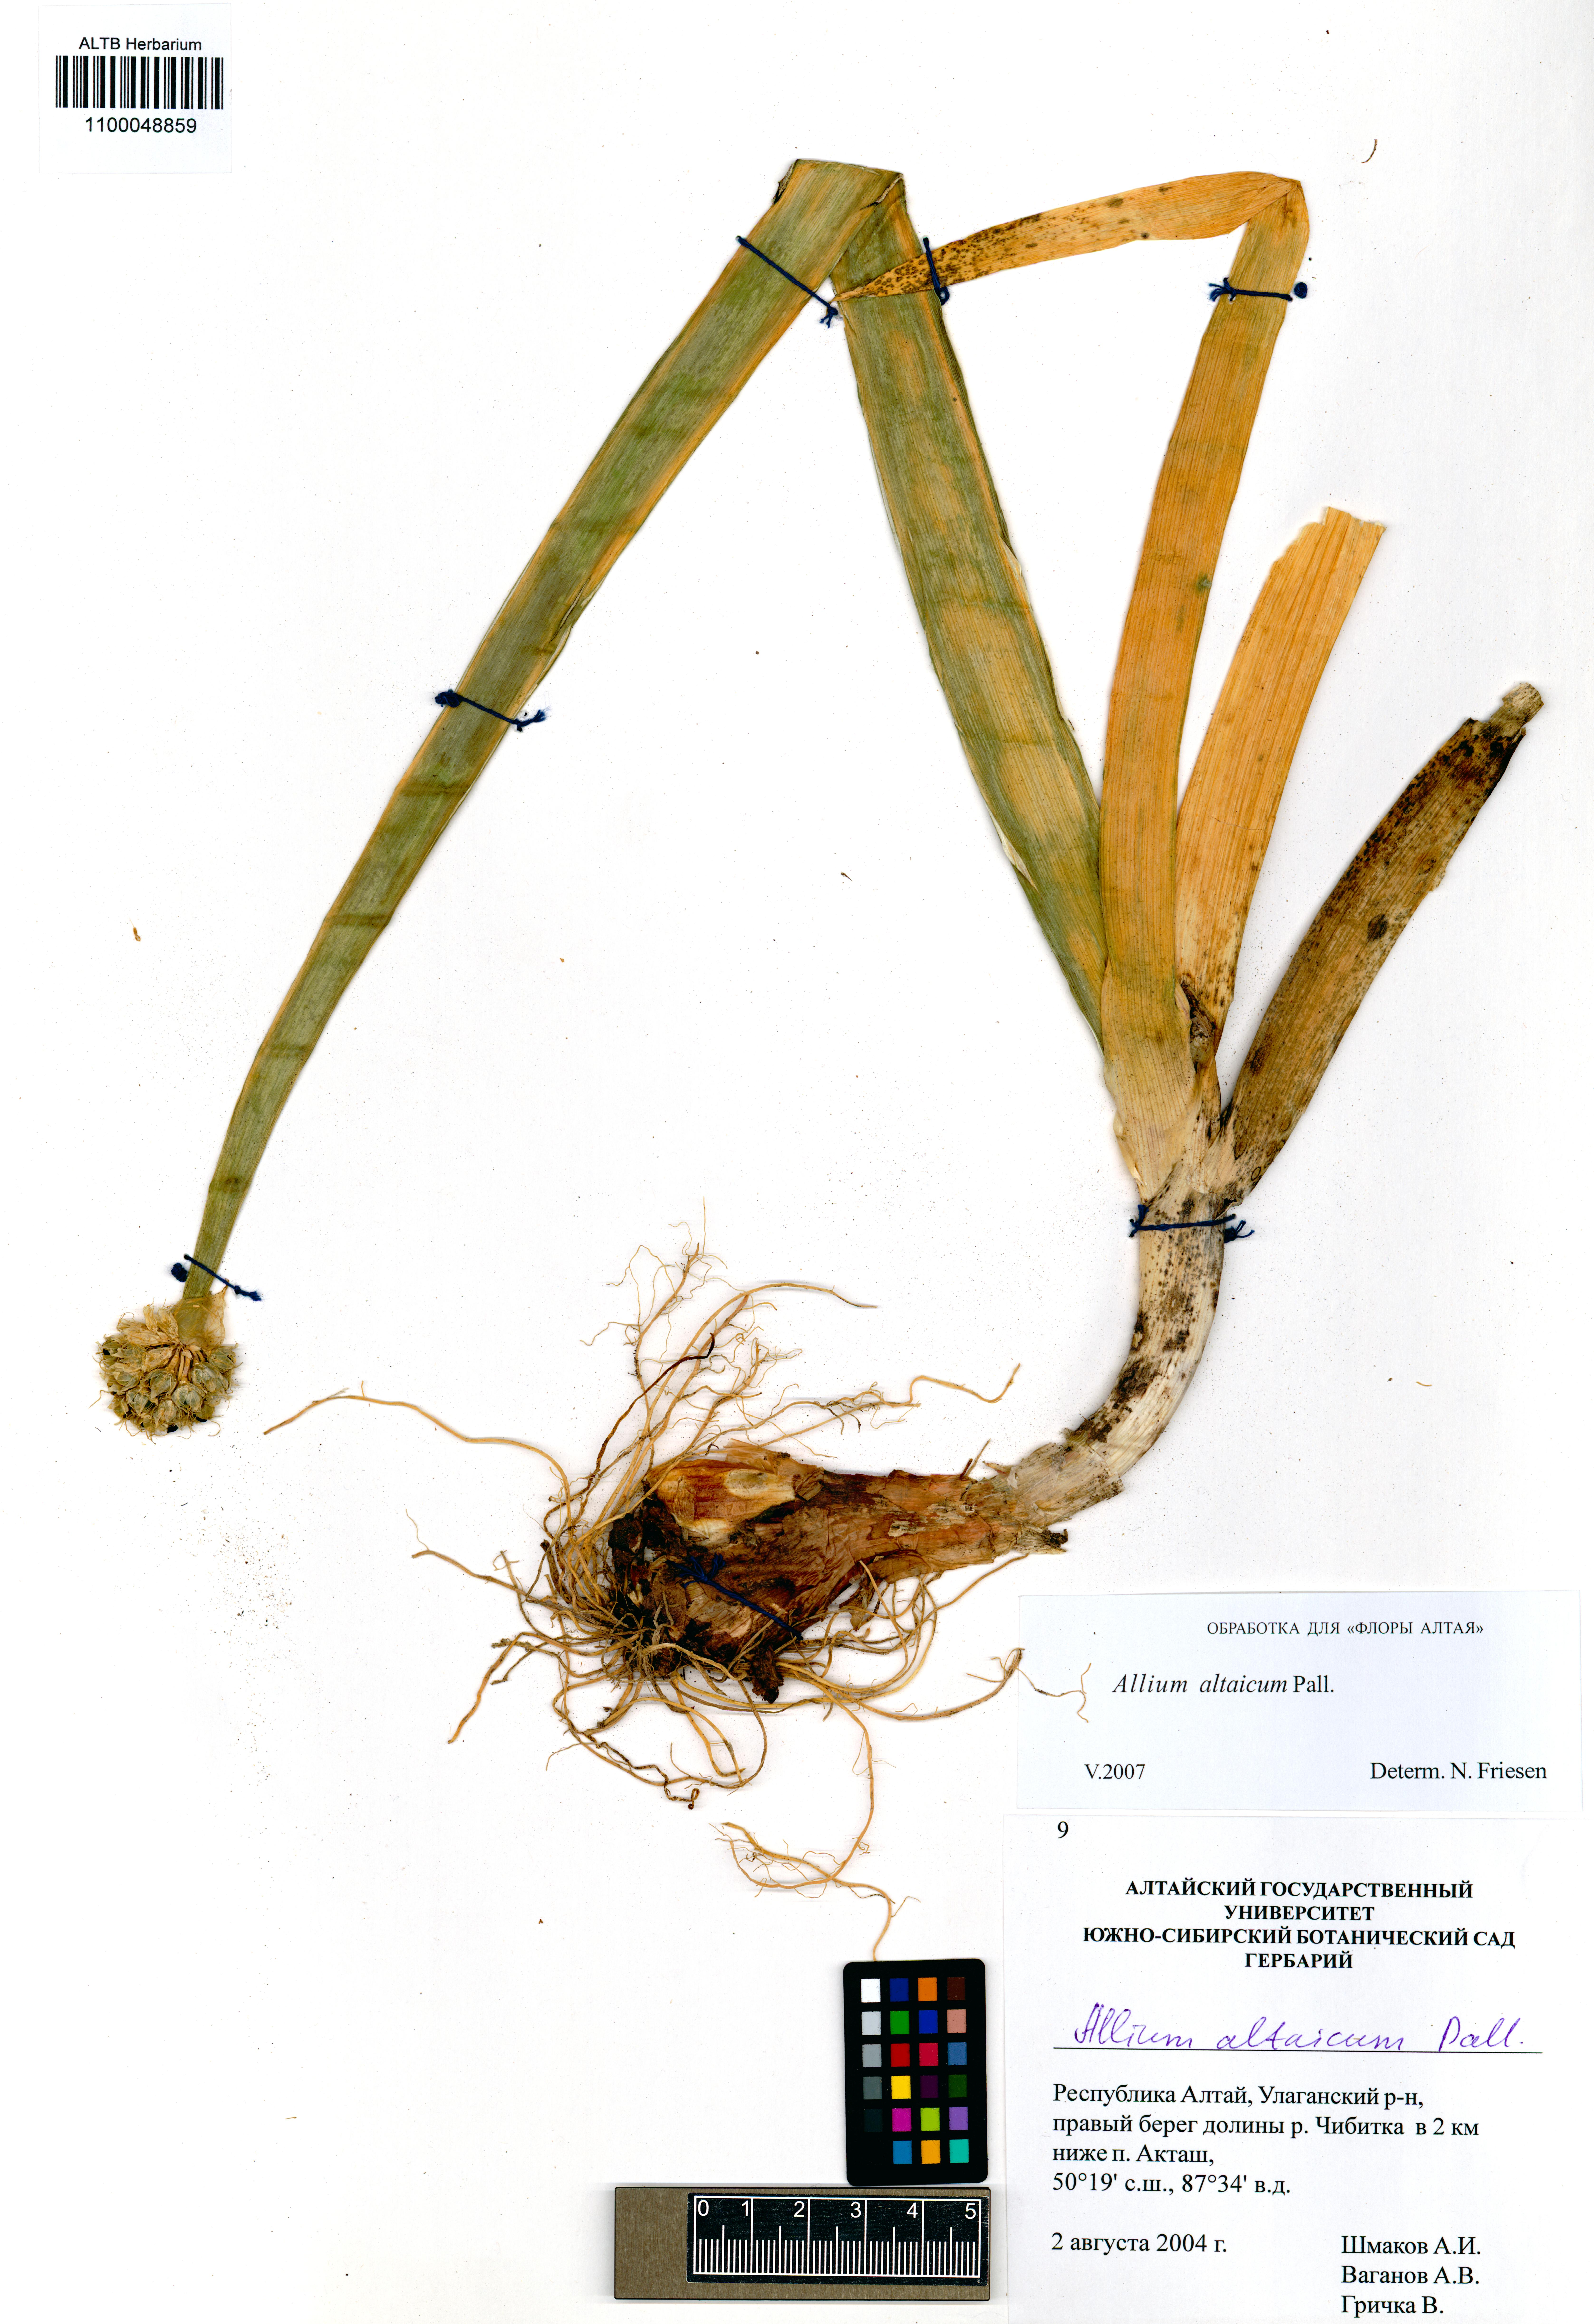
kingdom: Plantae
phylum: Tracheophyta
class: Liliopsida
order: Asparagales
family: Amaryllidaceae
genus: Allium
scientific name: Allium altaicum
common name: Altai onion
